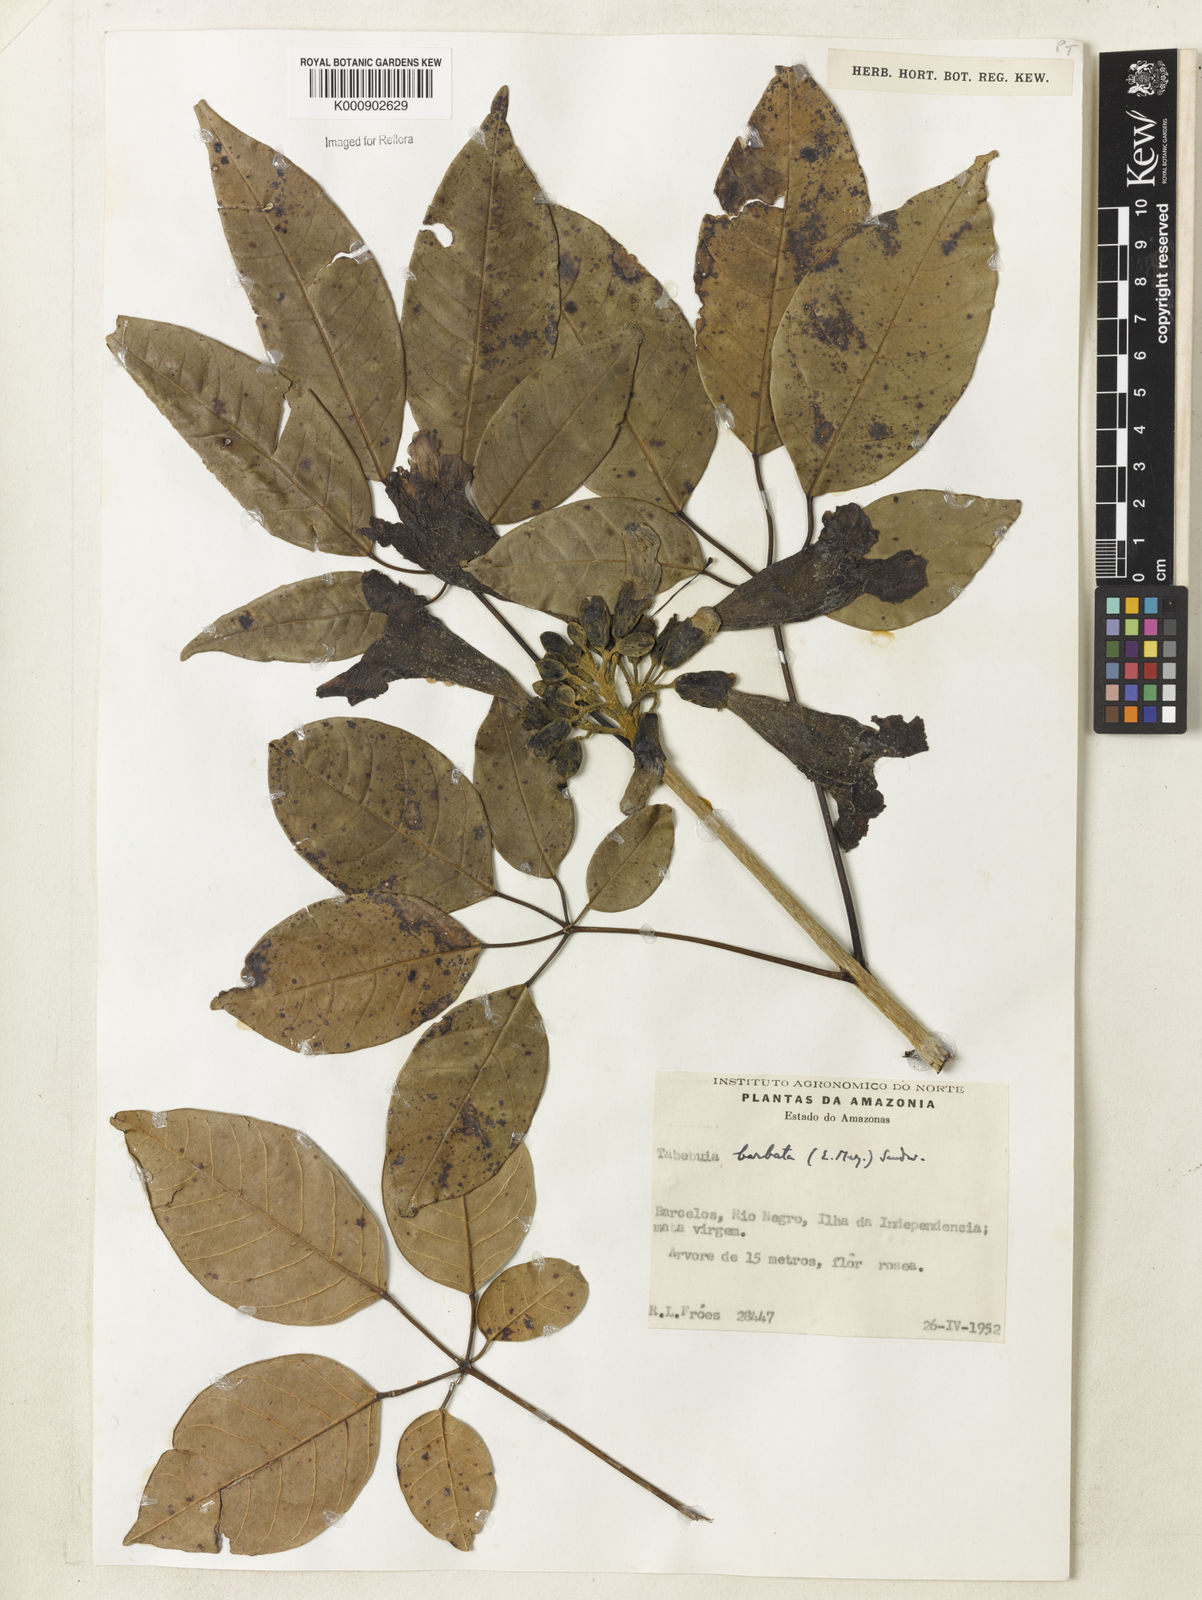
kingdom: Plantae
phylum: Tracheophyta
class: Magnoliopsida
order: Lamiales
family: Bignoniaceae
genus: Handroanthus
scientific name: Handroanthus barbatus
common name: Trumpet trees
